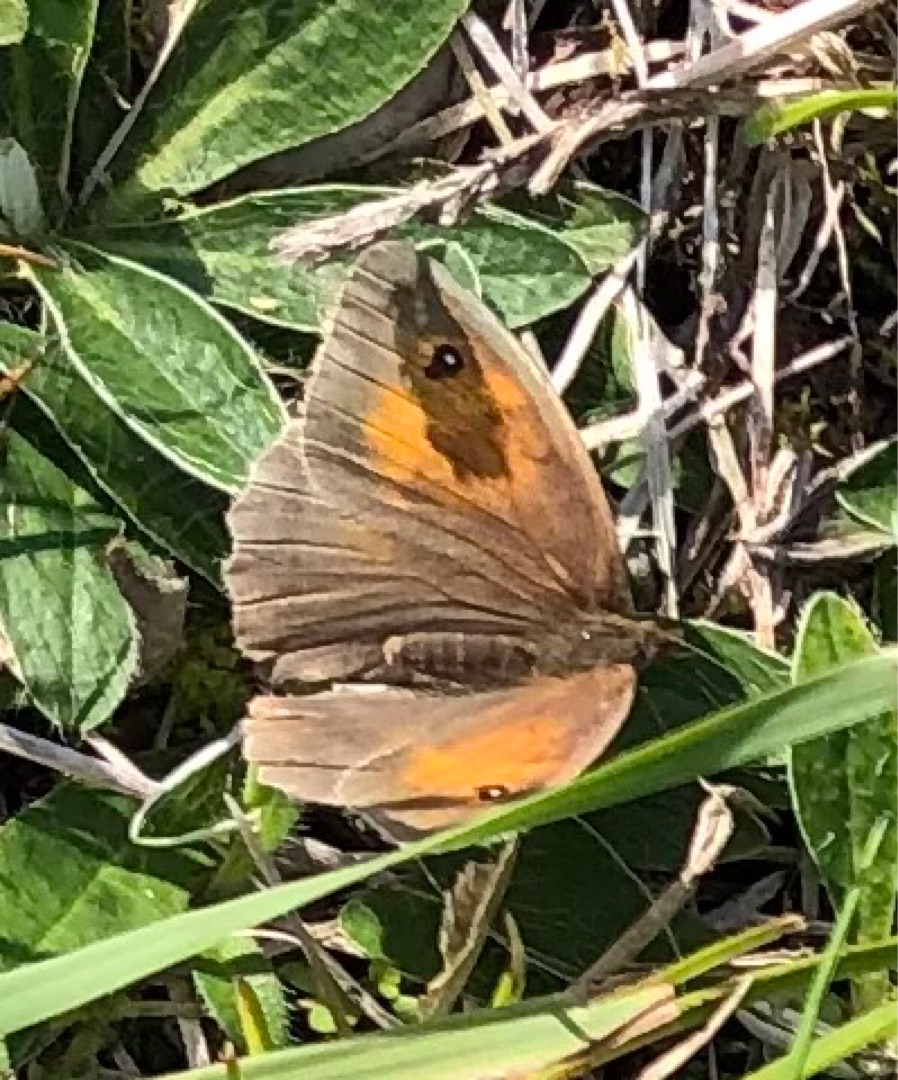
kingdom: Animalia
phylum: Arthropoda
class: Insecta
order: Lepidoptera
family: Nymphalidae
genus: Maniola
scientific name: Maniola jurtina
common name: Græsrandøje
